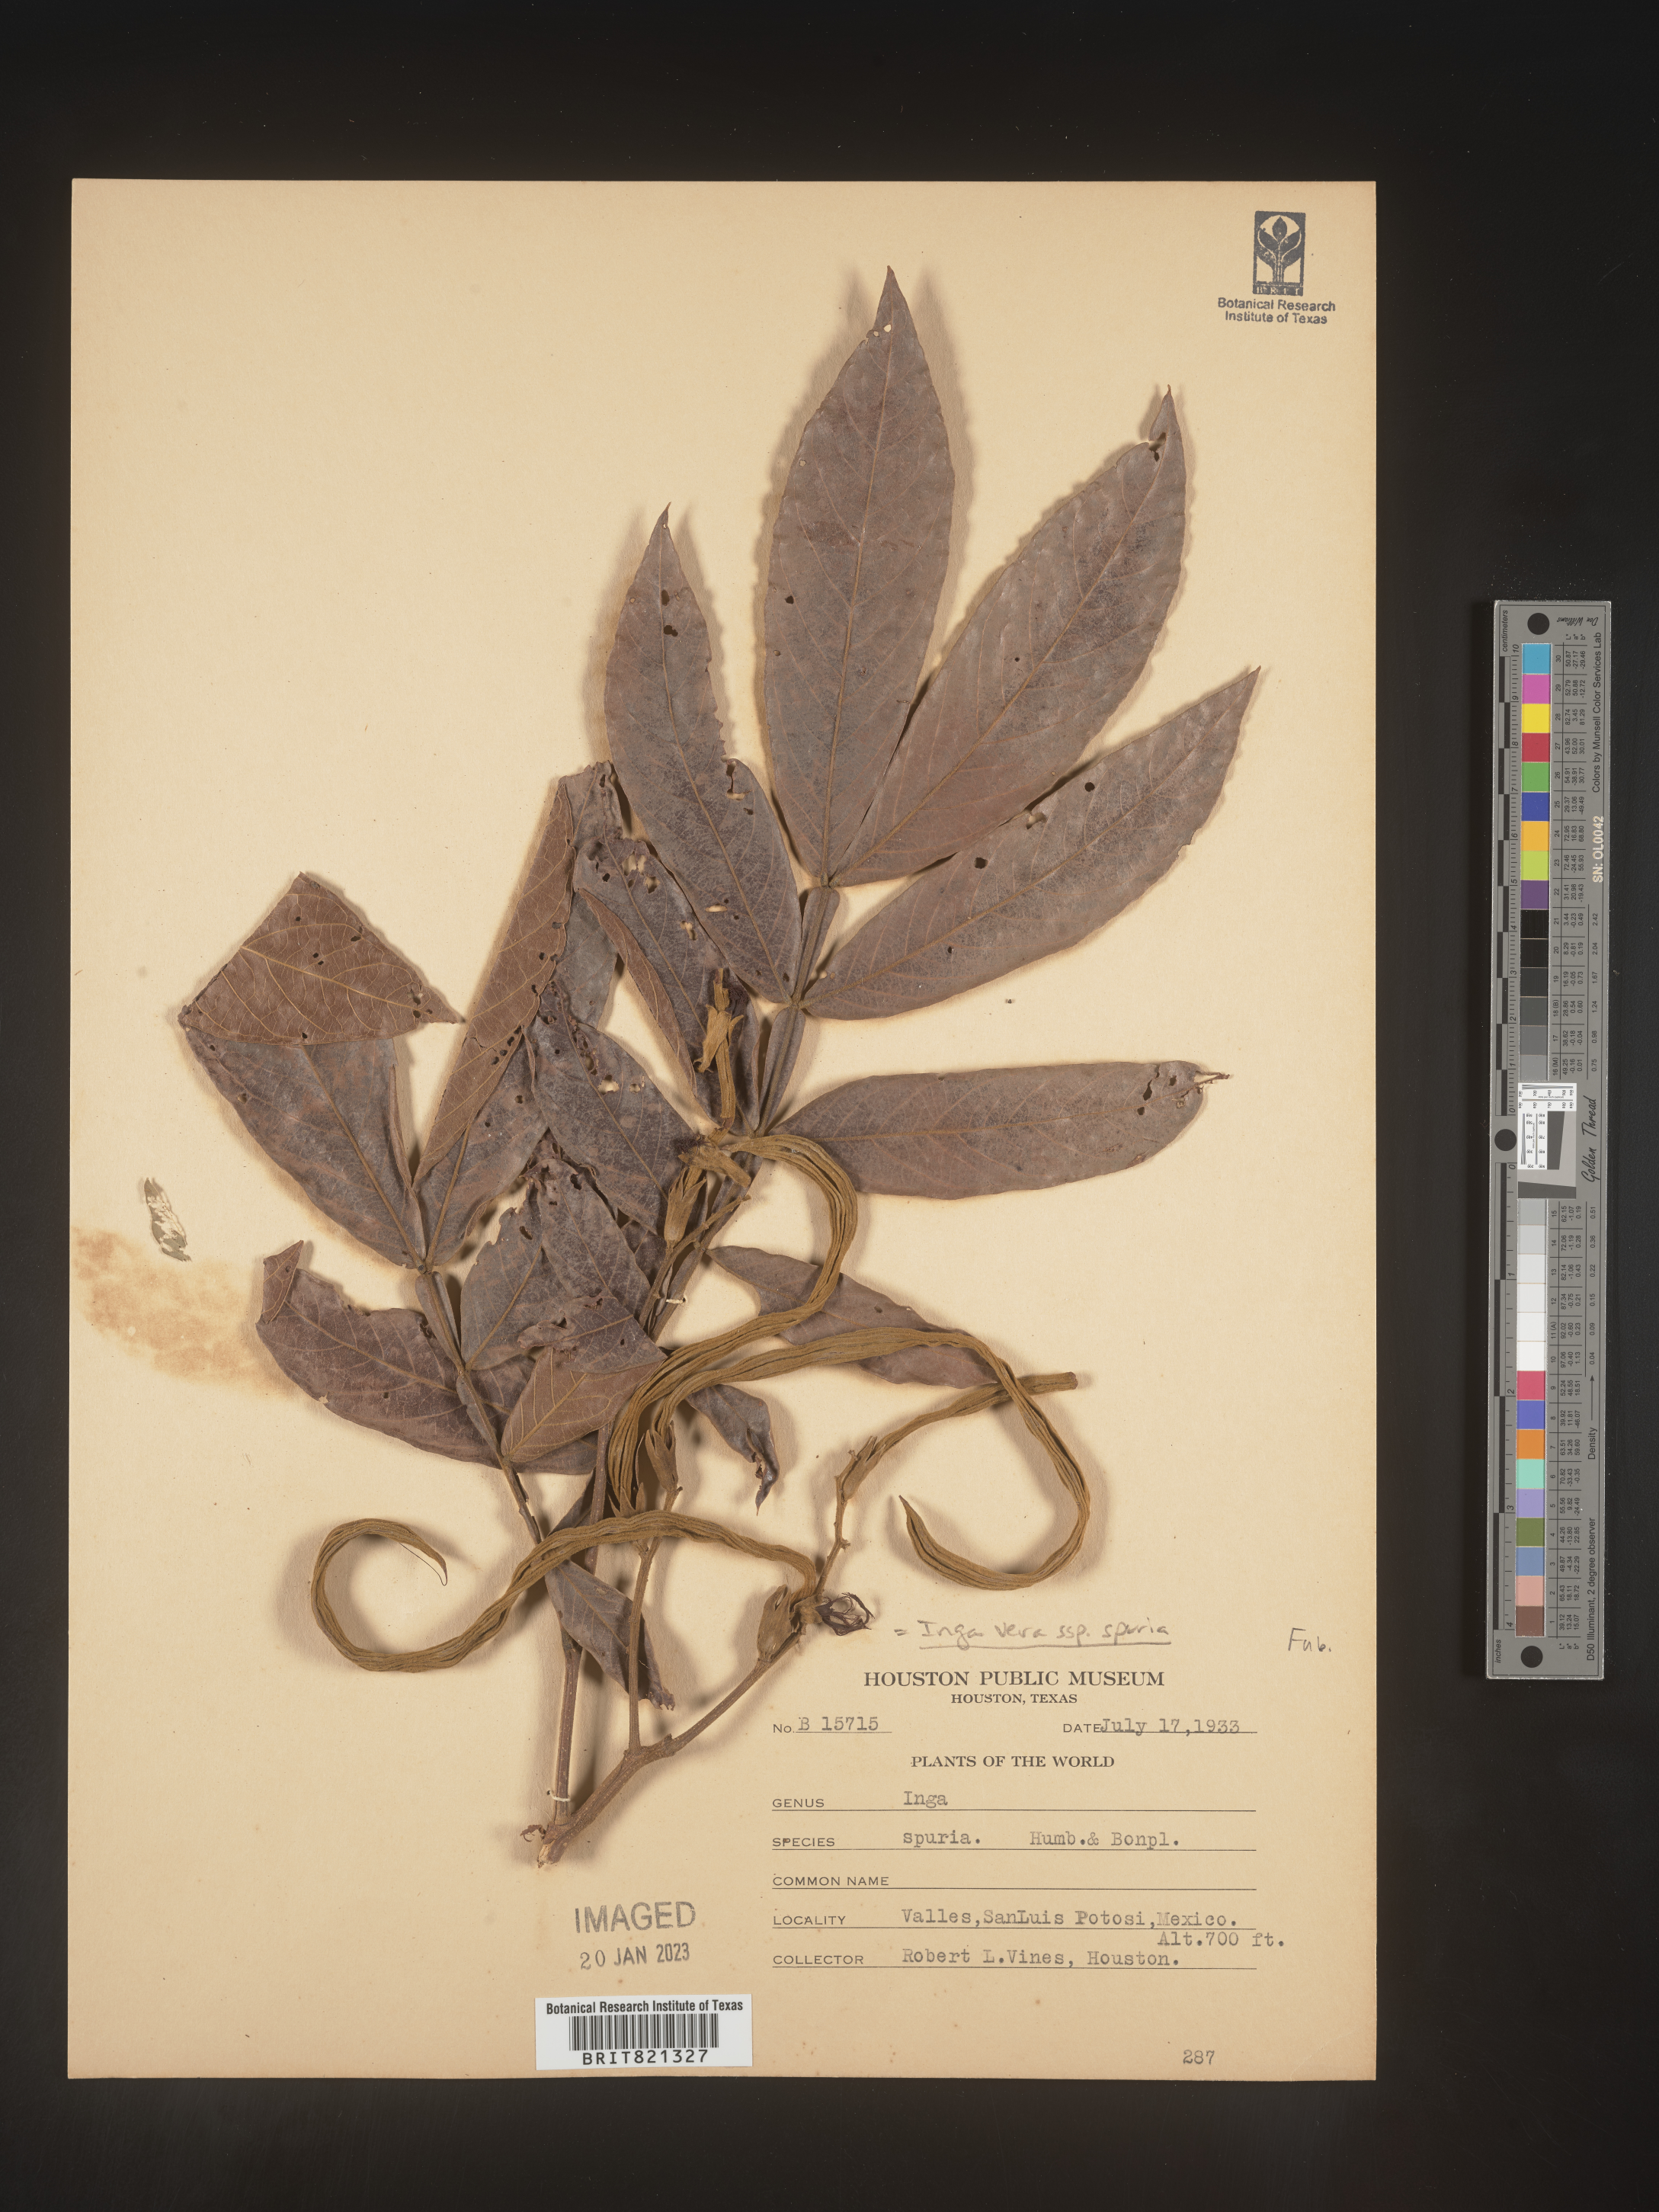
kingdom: Plantae
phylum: Tracheophyta
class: Magnoliopsida
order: Fabales
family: Fabaceae
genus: Inga
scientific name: Inga
